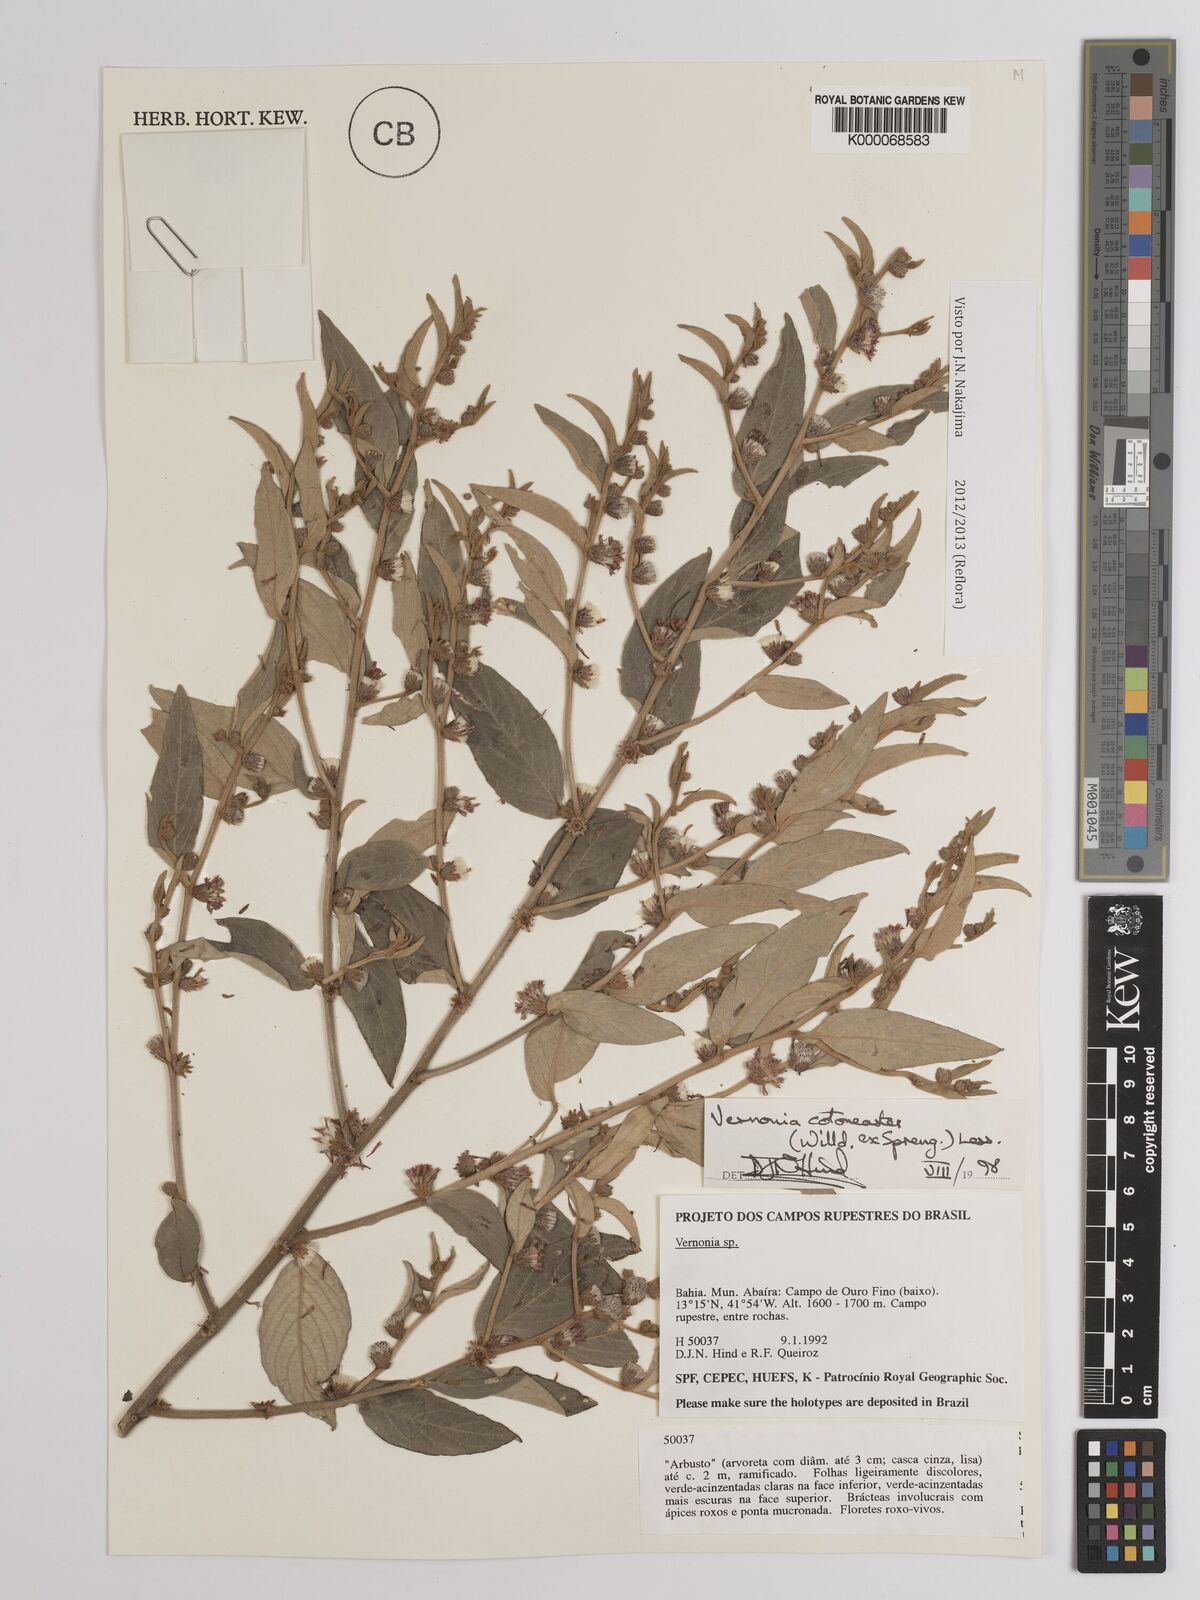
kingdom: Plantae
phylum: Tracheophyta
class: Magnoliopsida
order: Asterales
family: Asteraceae
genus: Lepidaploa
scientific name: Lepidaploa cotoneaster
